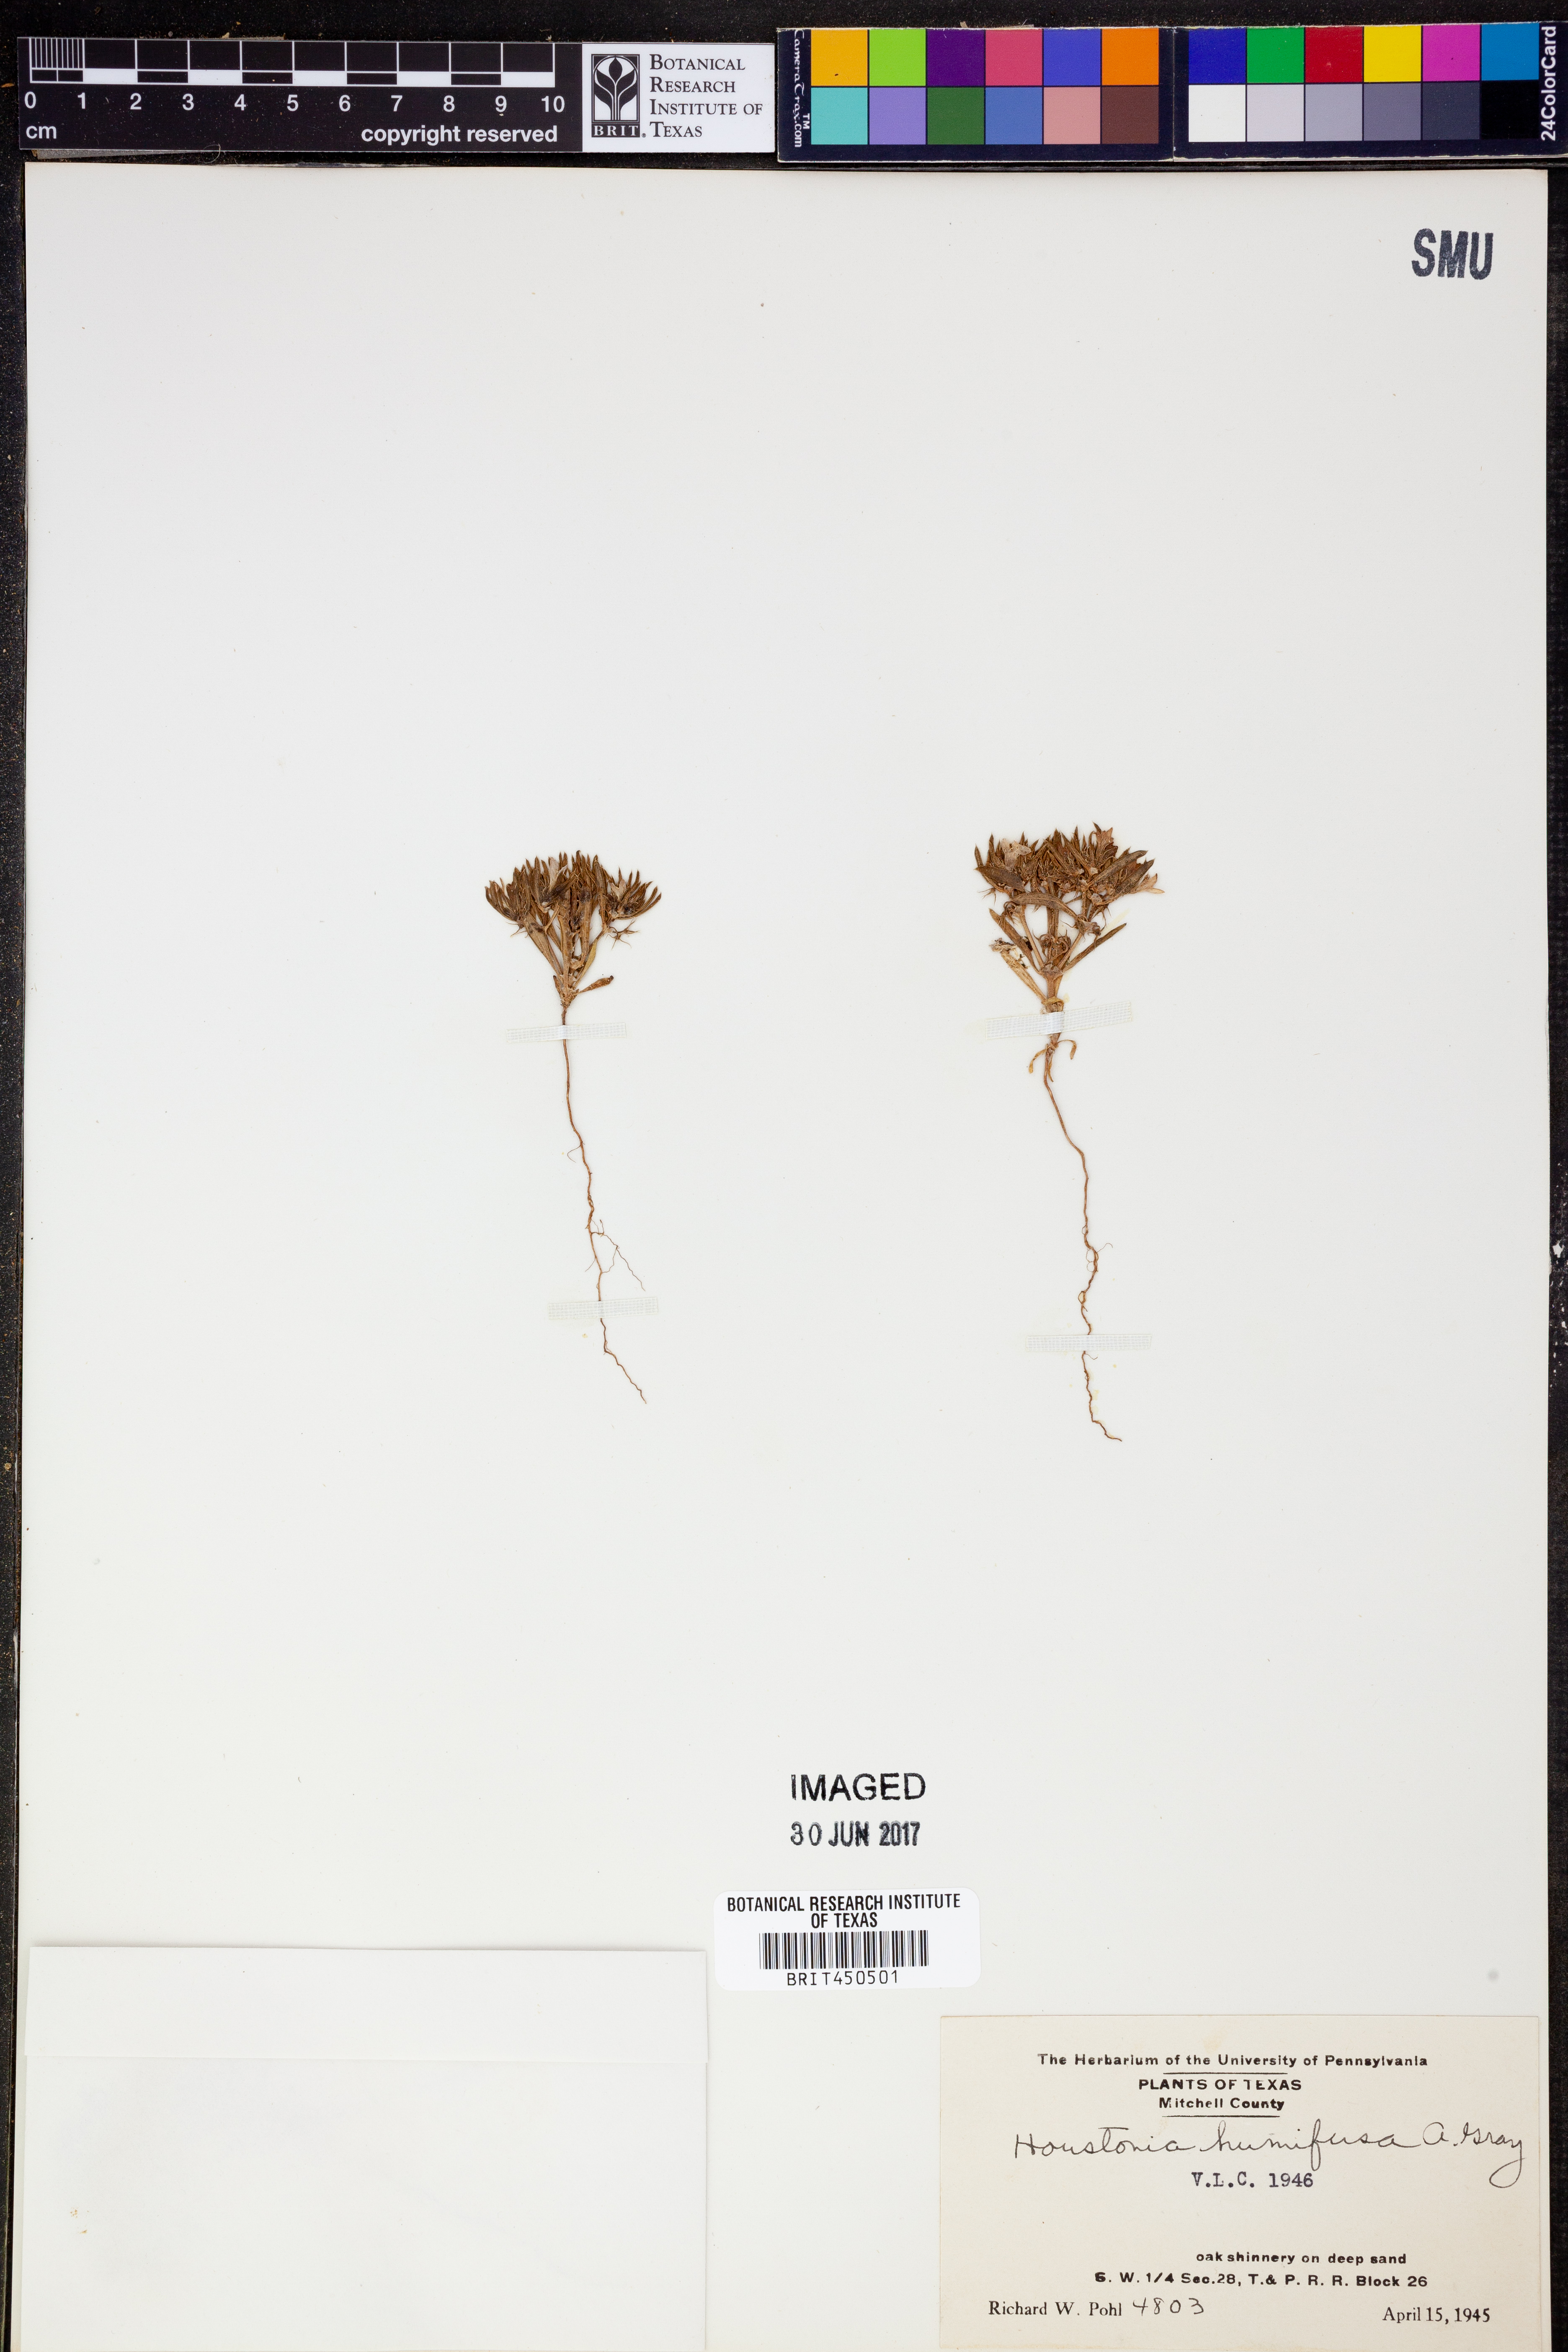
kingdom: Plantae
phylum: Tracheophyta
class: Magnoliopsida
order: Gentianales
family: Rubiaceae
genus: Houstonia
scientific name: Houstonia humifusa
